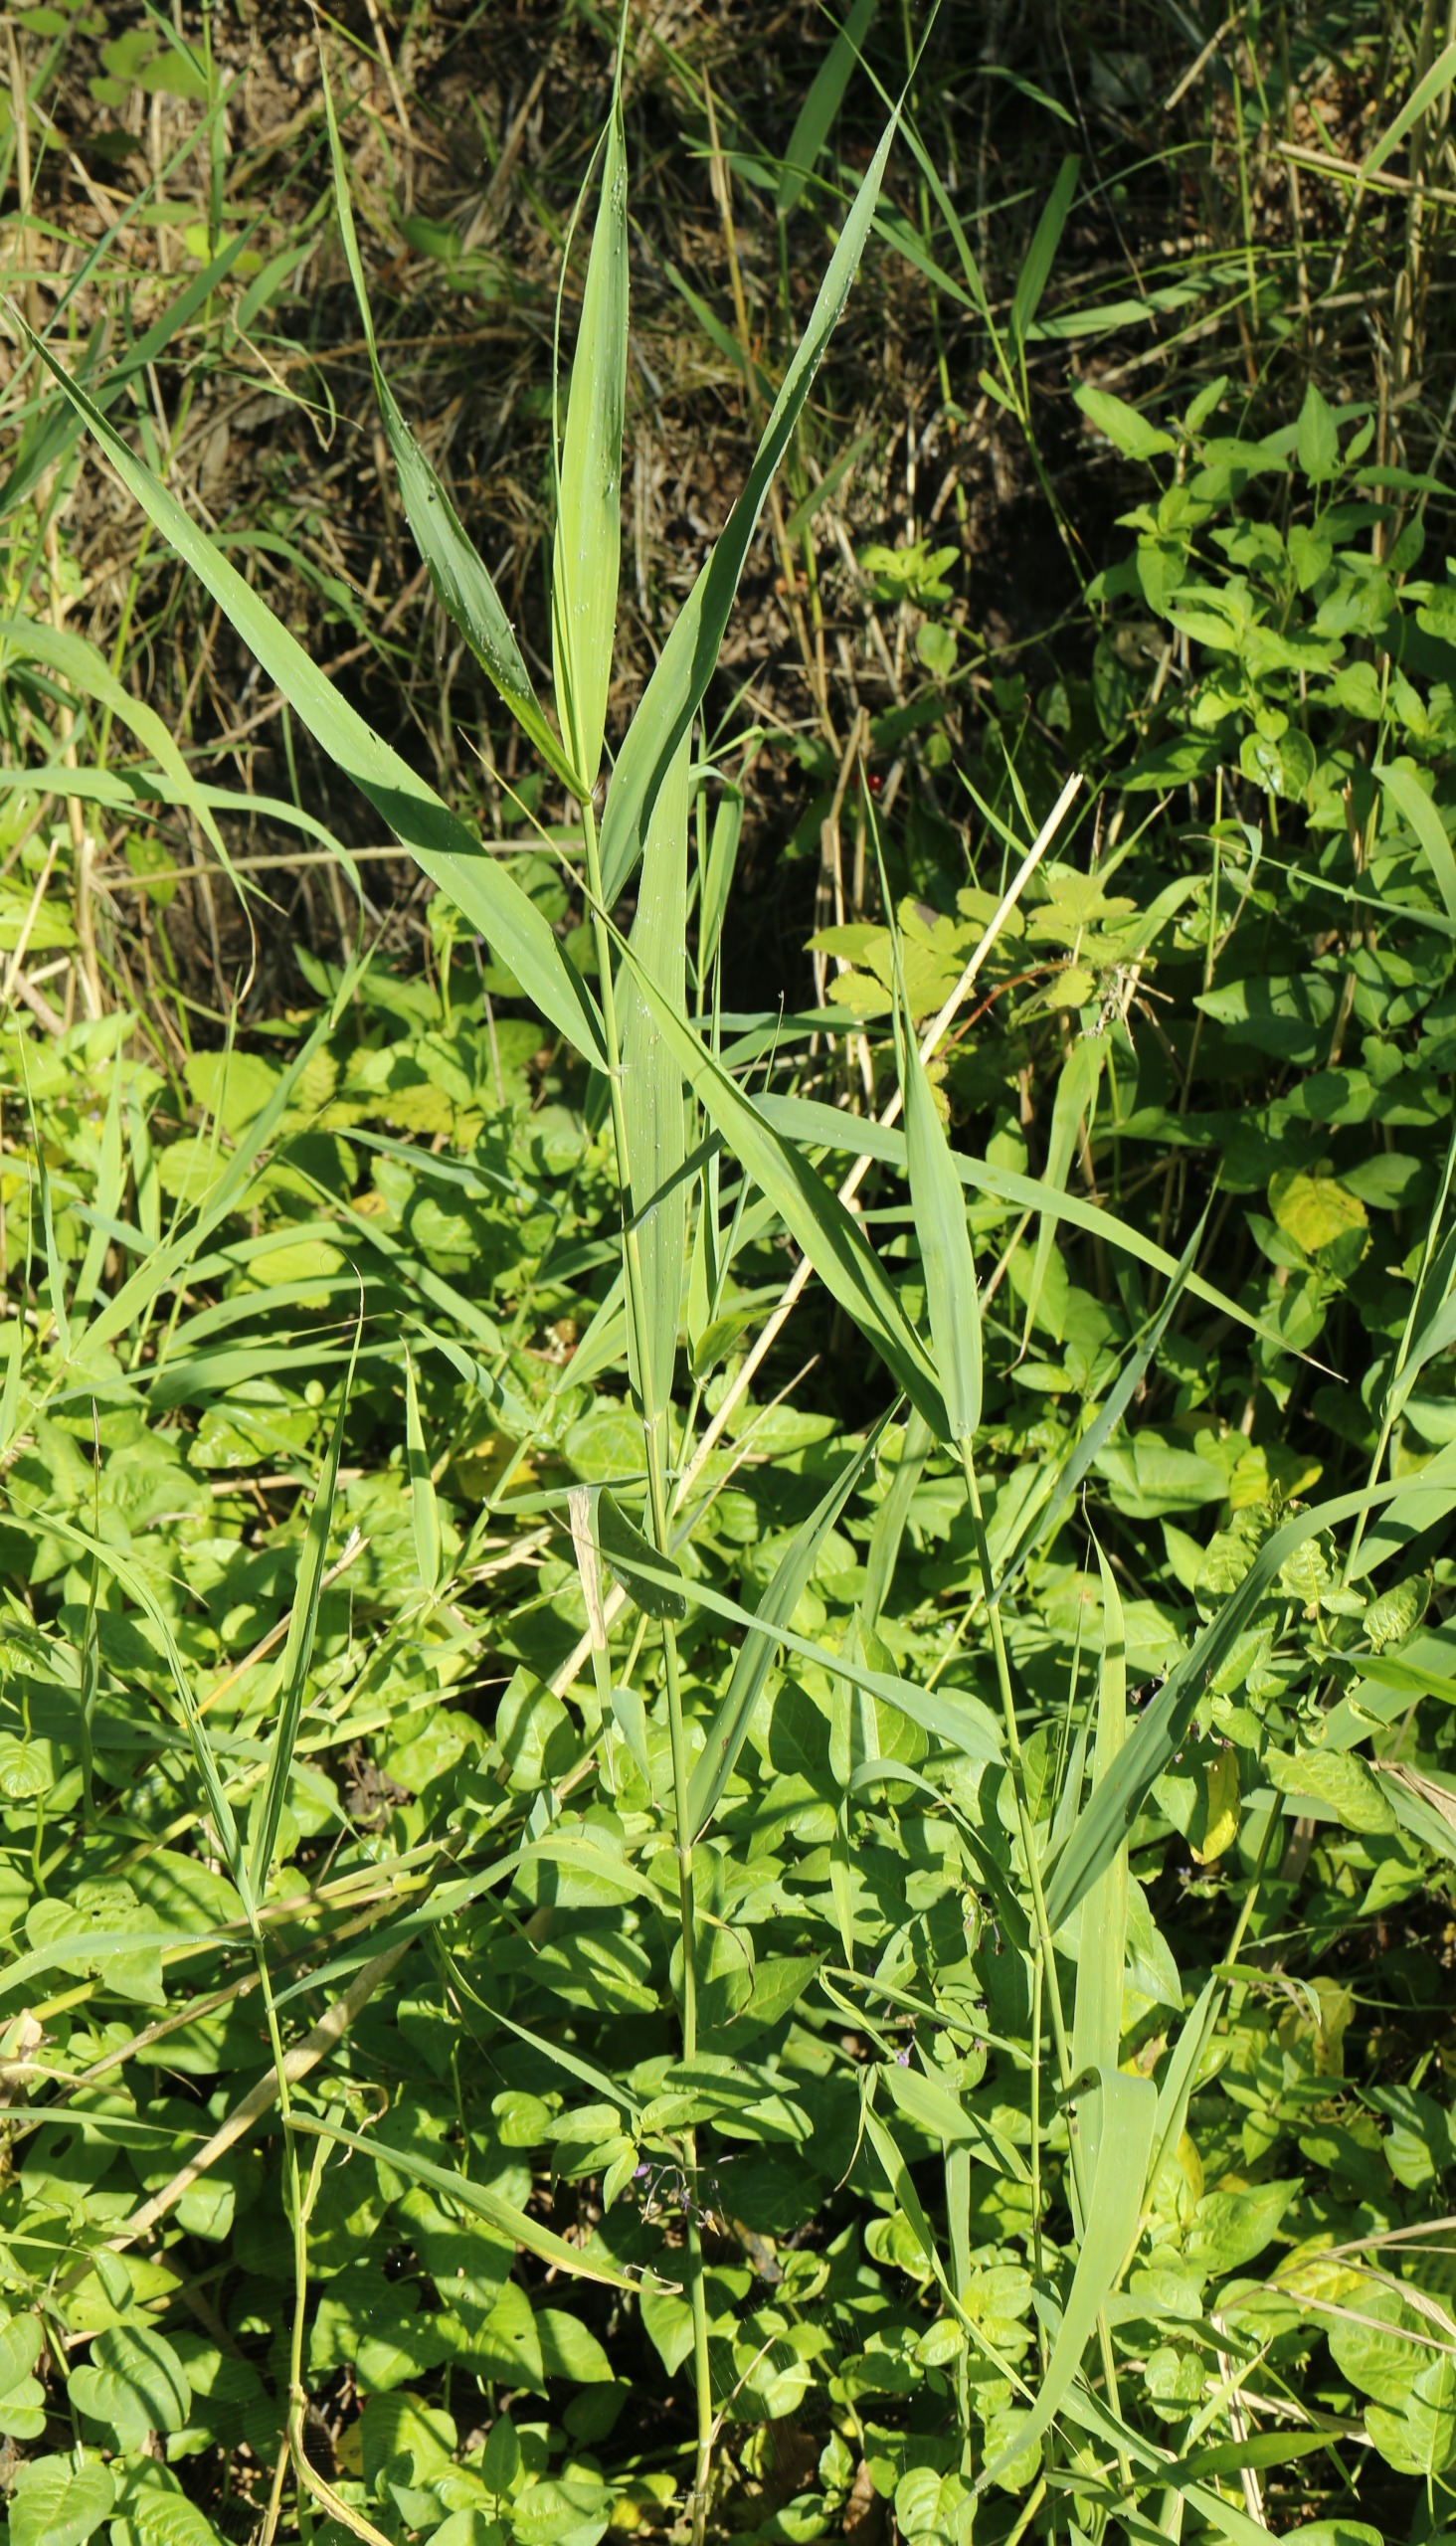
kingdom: Plantae
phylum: Tracheophyta
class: Liliopsida
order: Poales
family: Poaceae
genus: Phragmites
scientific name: Phragmites australis
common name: Tagrør
